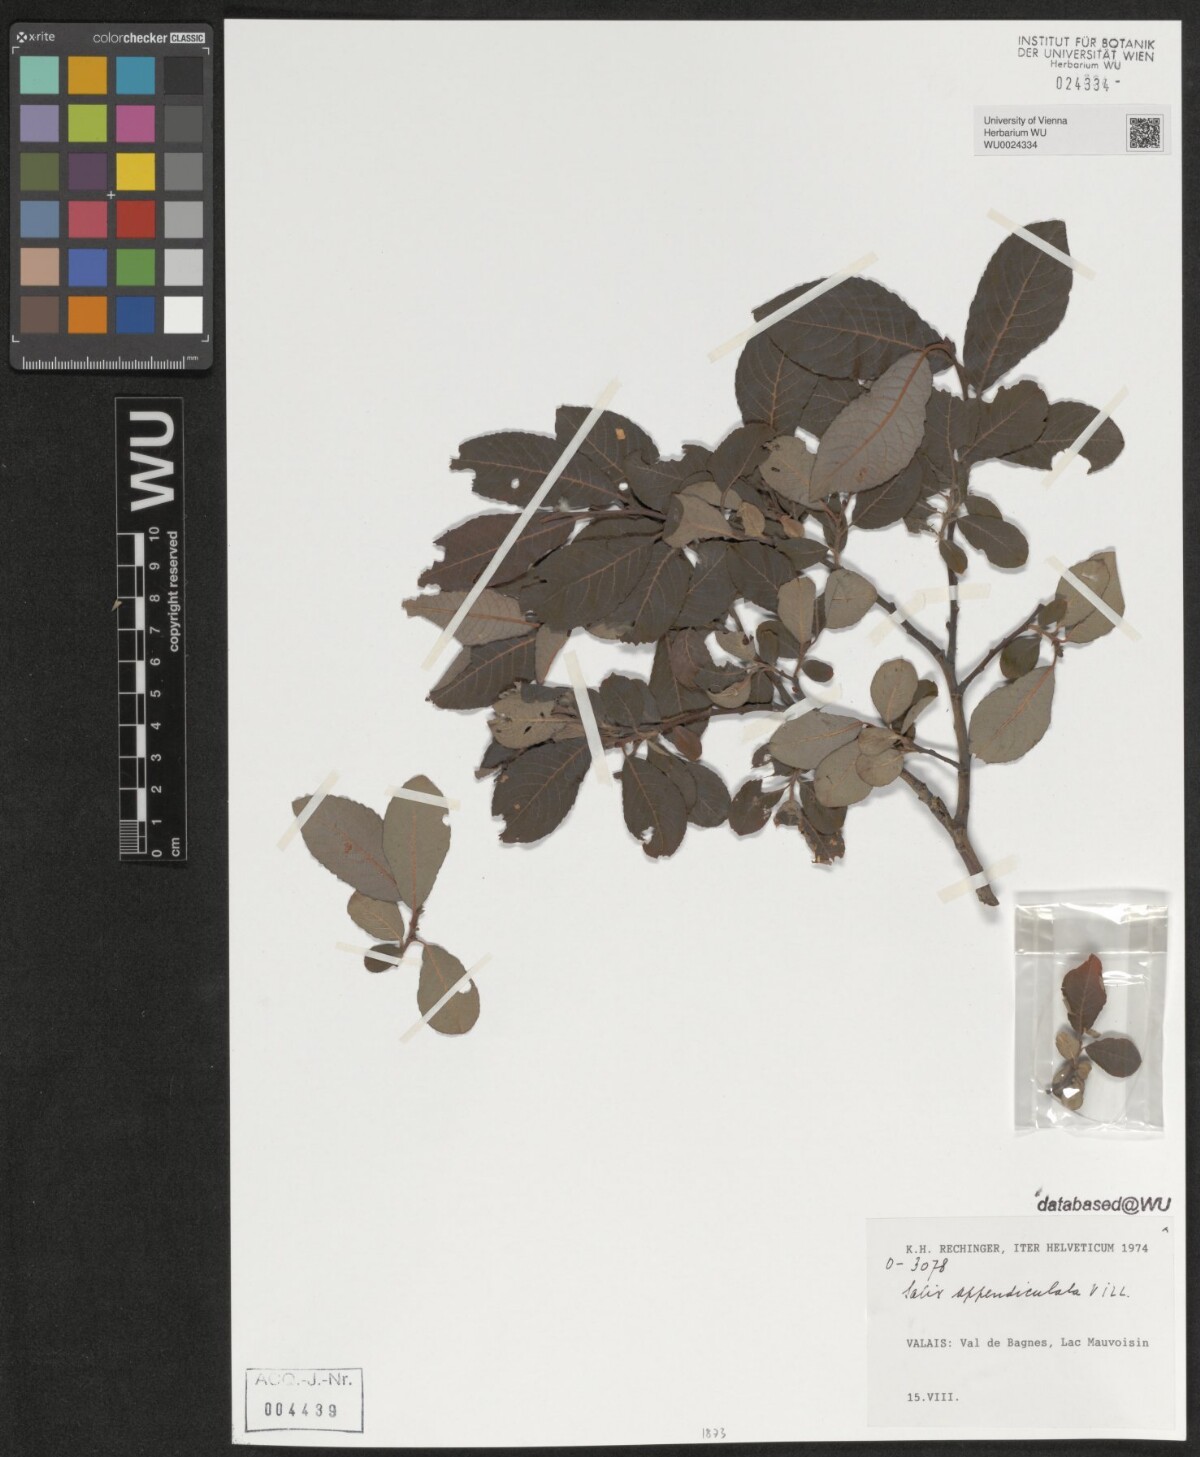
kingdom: Plantae
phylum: Tracheophyta
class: Magnoliopsida
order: Malpighiales
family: Salicaceae
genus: Salix
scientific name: Salix appendiculata
